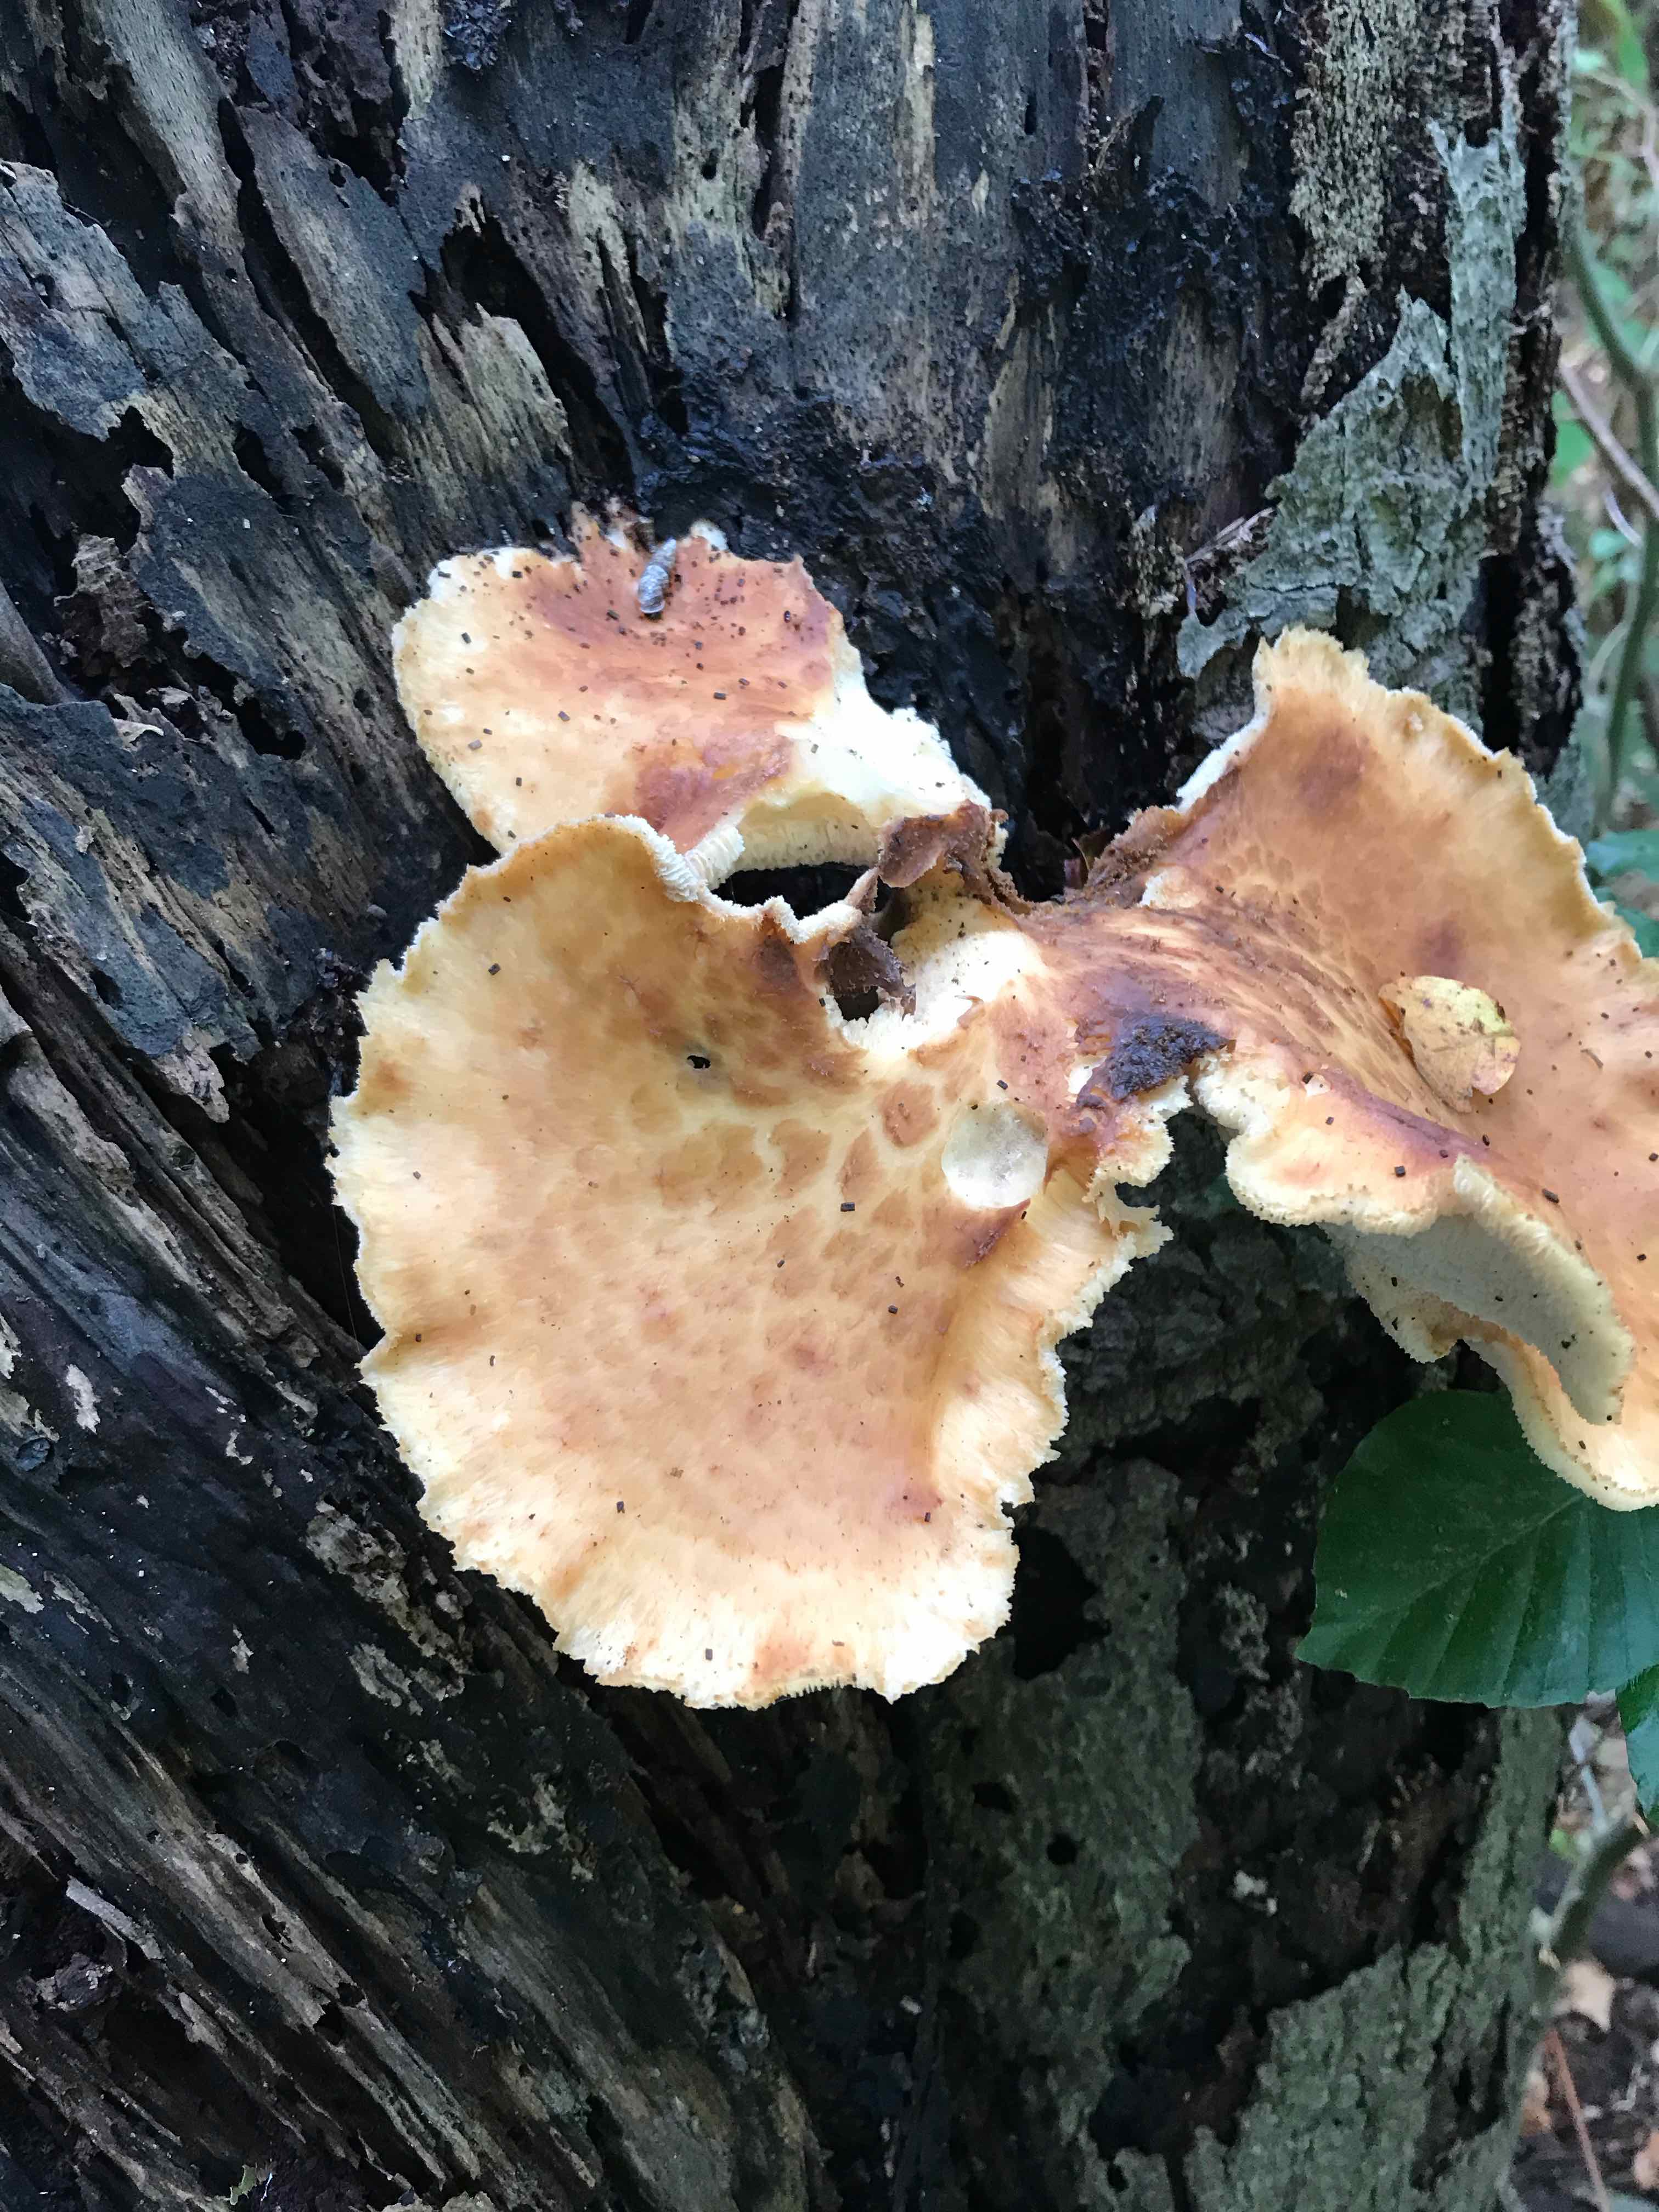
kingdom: Fungi
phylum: Basidiomycota
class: Agaricomycetes
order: Polyporales
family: Polyporaceae
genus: Cerioporus
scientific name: Cerioporus squamosus
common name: skællet stilkporesvamp
